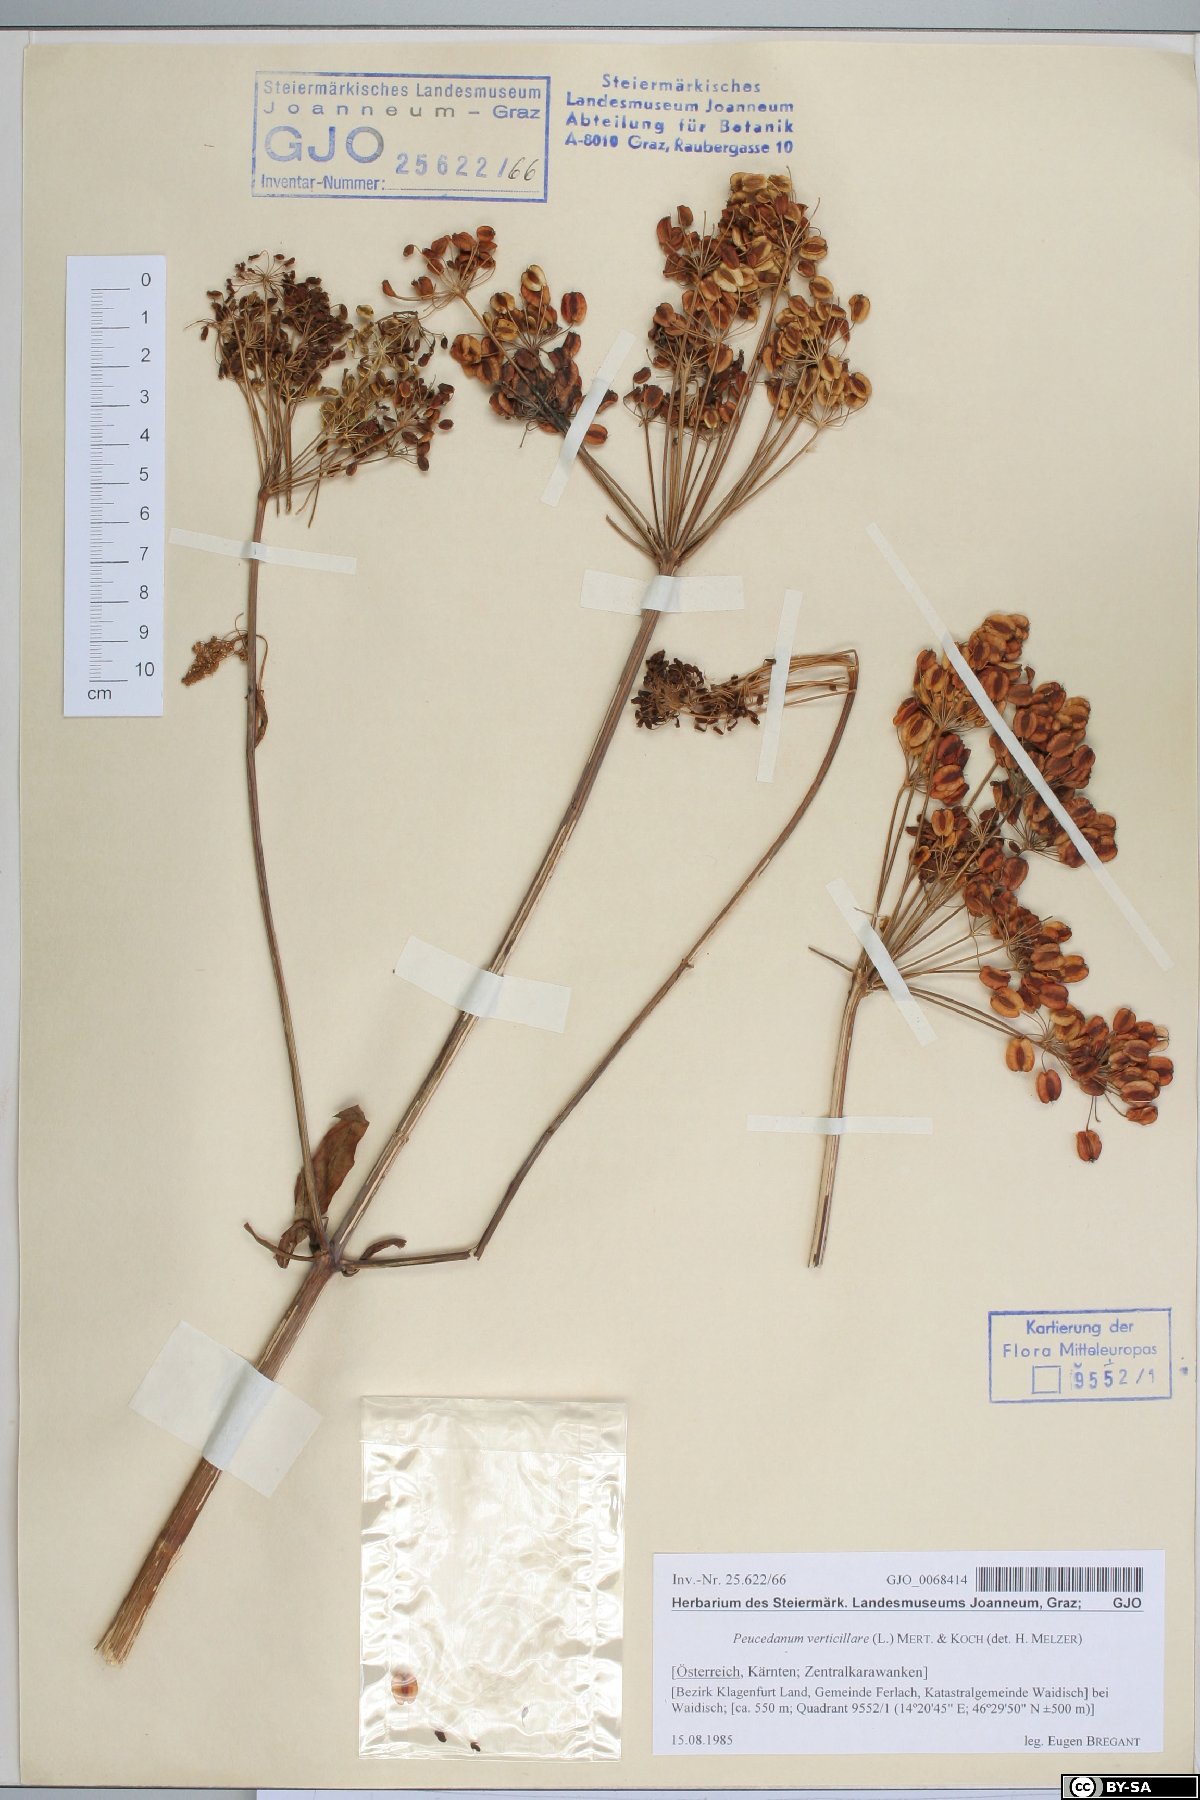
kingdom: Plantae
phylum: Tracheophyta
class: Magnoliopsida
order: Apiales
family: Apiaceae
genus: Tommasinia
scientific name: Tommasinia altissima
